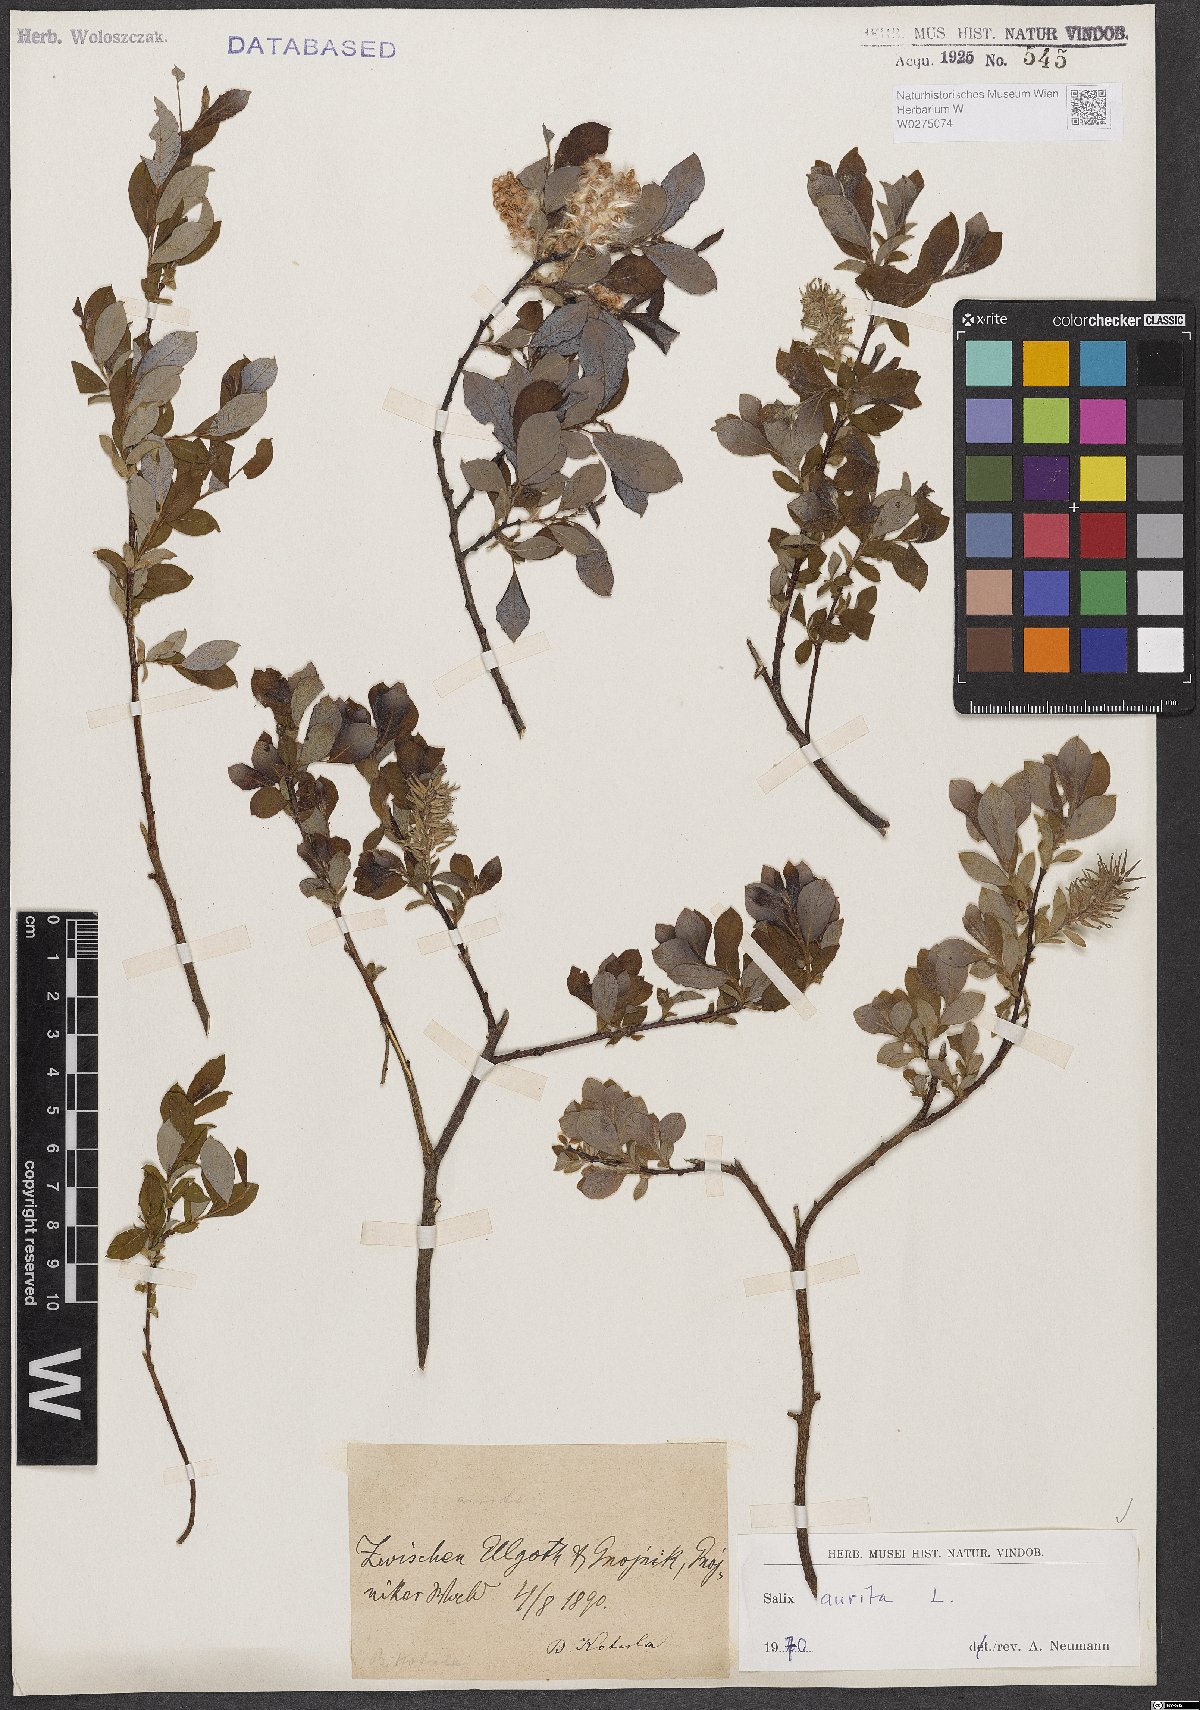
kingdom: Plantae
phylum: Tracheophyta
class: Magnoliopsida
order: Malpighiales
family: Salicaceae
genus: Salix
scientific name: Salix aurita
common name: Eared willow
